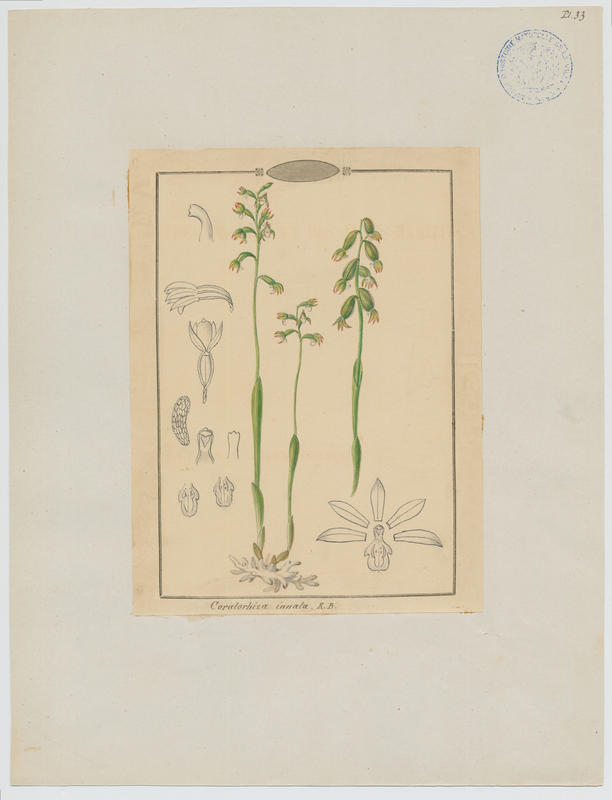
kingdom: Plantae
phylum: Tracheophyta
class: Liliopsida
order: Asparagales
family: Orchidaceae
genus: Corallorhiza
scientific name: Corallorhiza Corallorrhiza trifida
